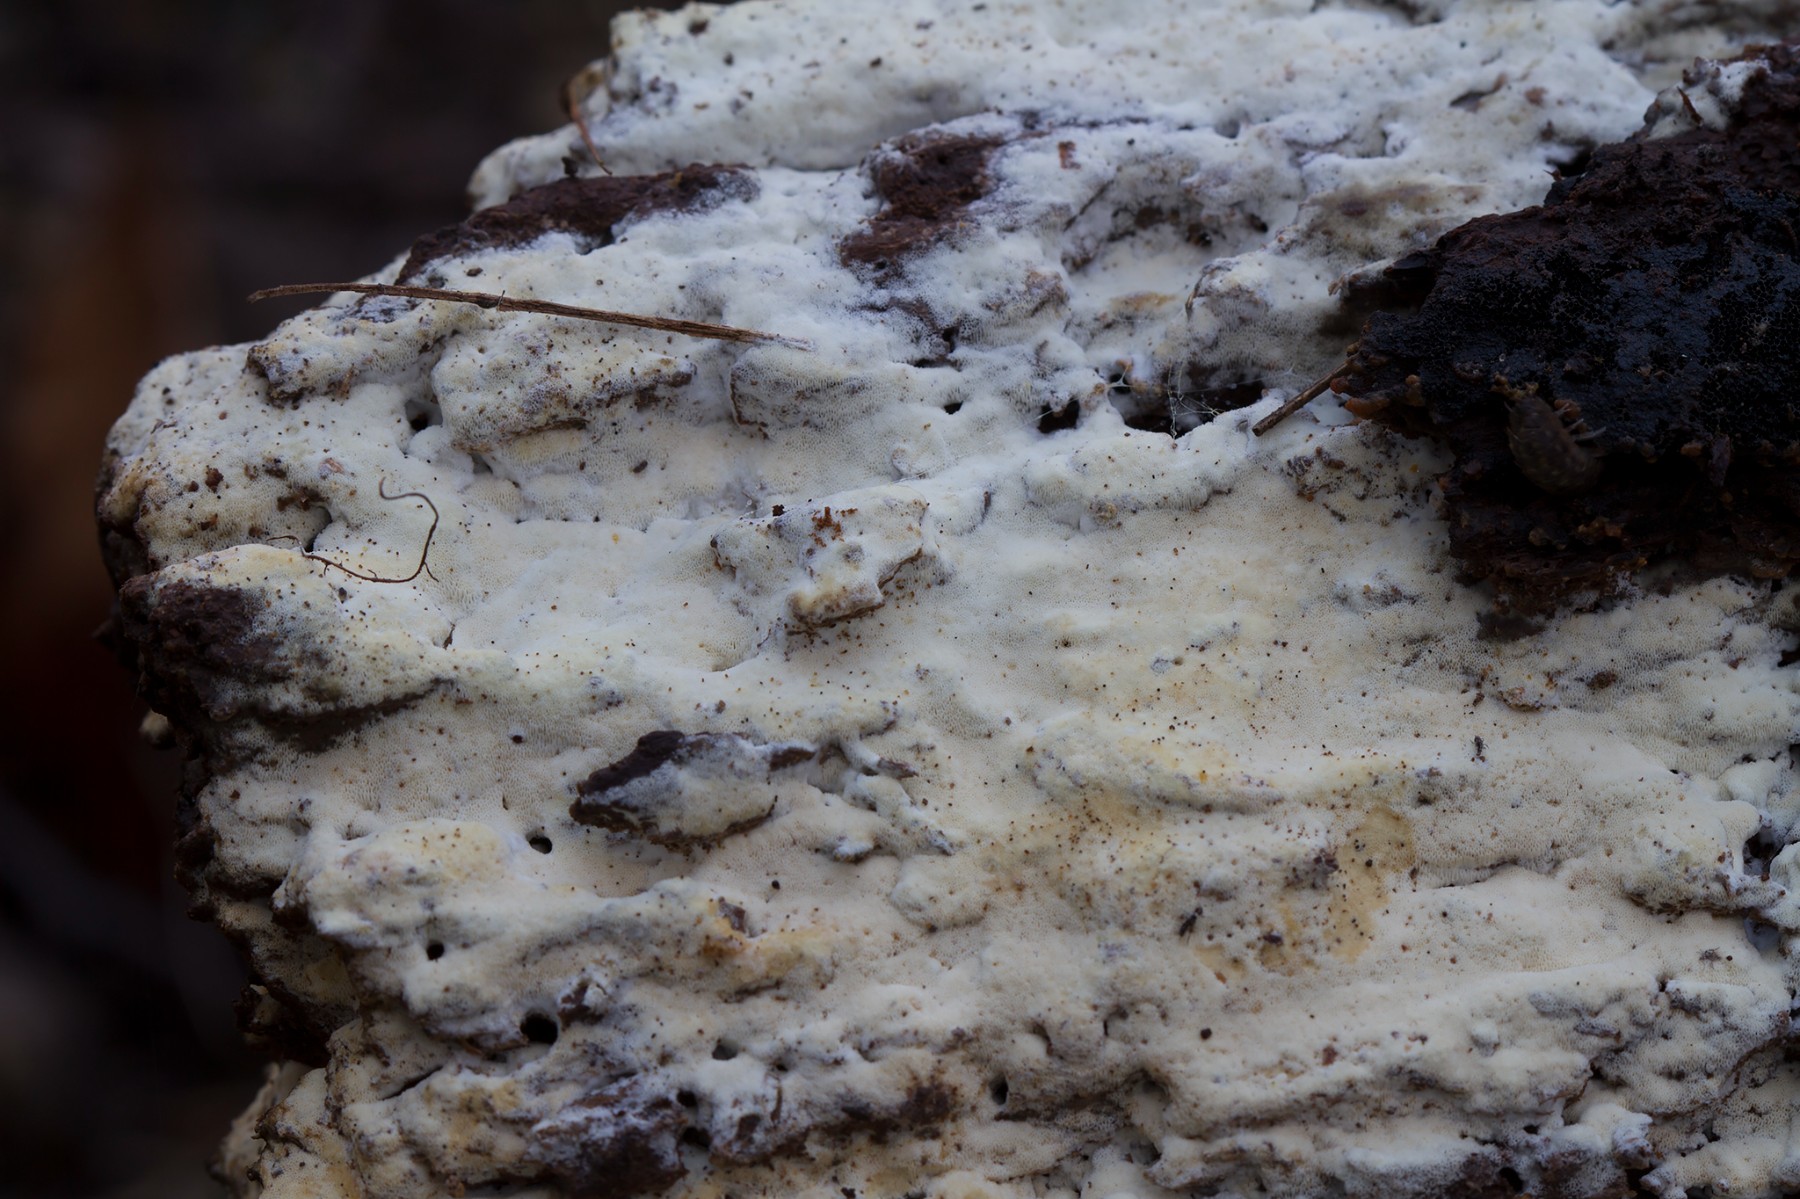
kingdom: Fungi
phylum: Basidiomycota
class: Agaricomycetes
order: Hymenochaetales
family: Rickenellaceae
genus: Sidera
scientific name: Sidera vulgaris
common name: fin flødeporesvamp
